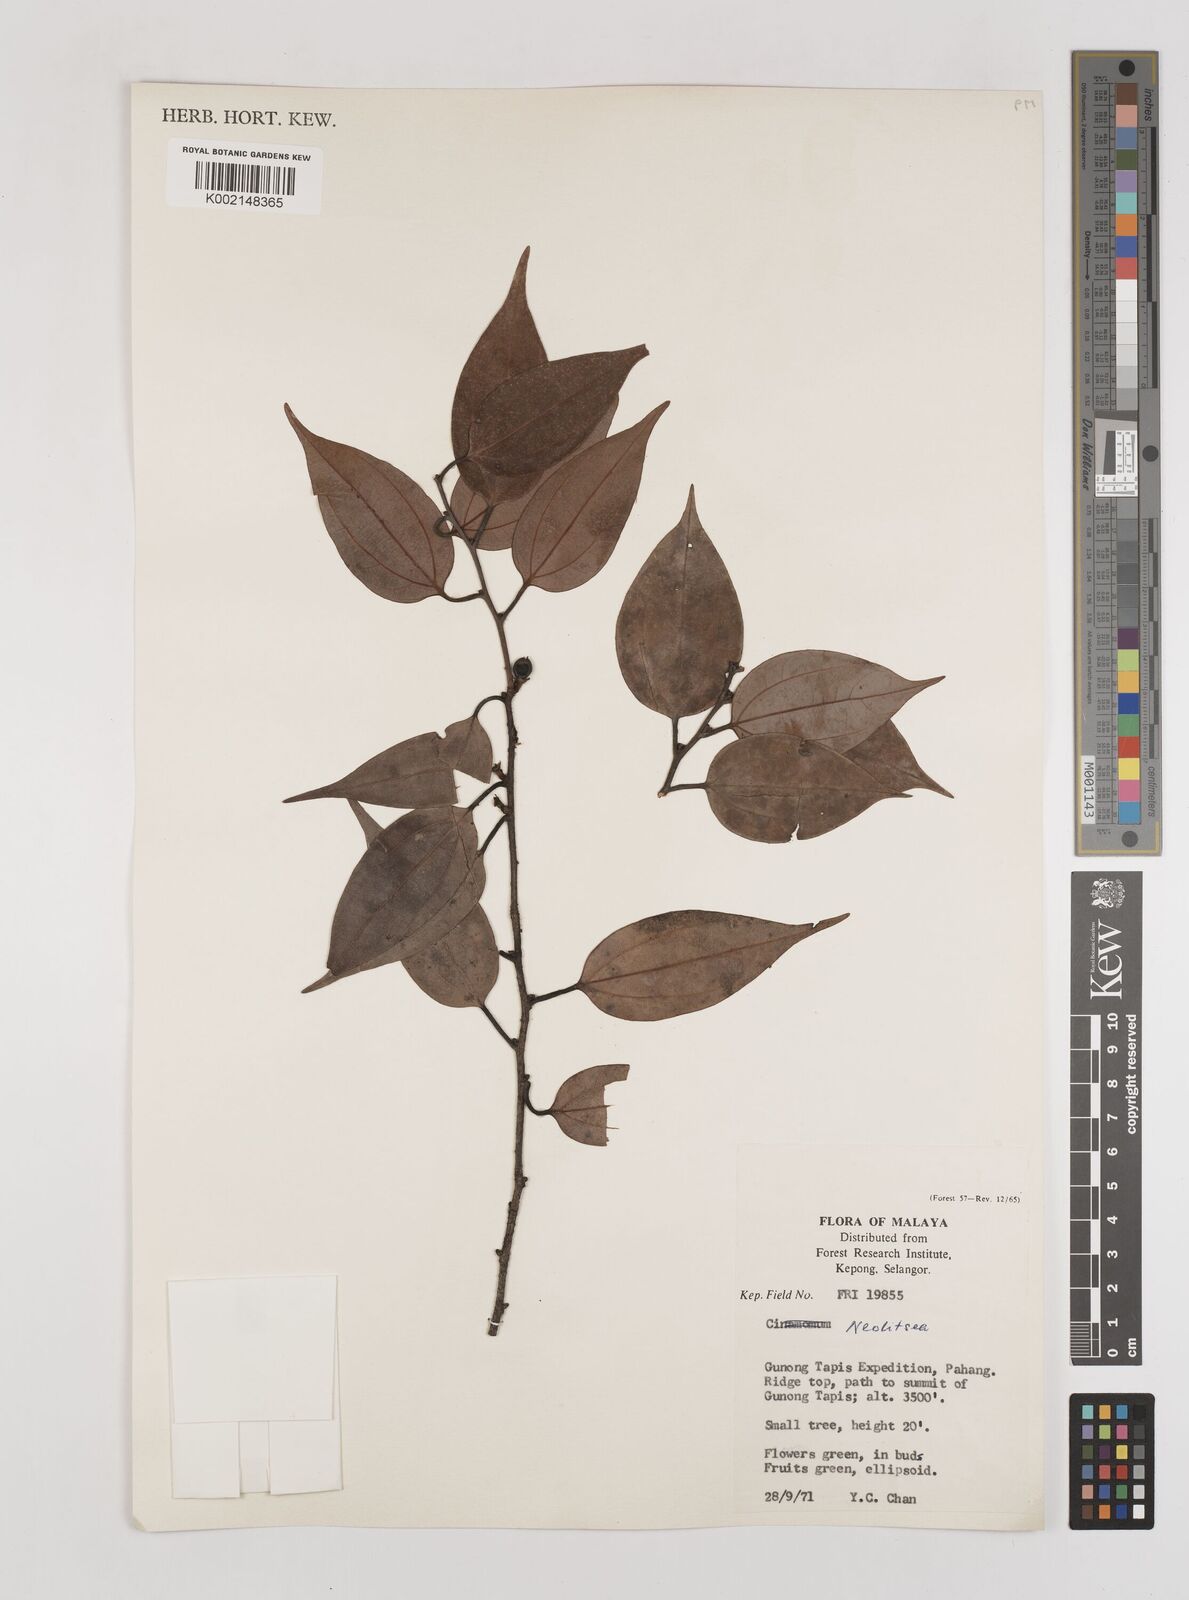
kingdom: Plantae
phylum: Tracheophyta
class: Magnoliopsida
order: Laurales
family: Lauraceae
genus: Neolitsea
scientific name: Neolitsea
